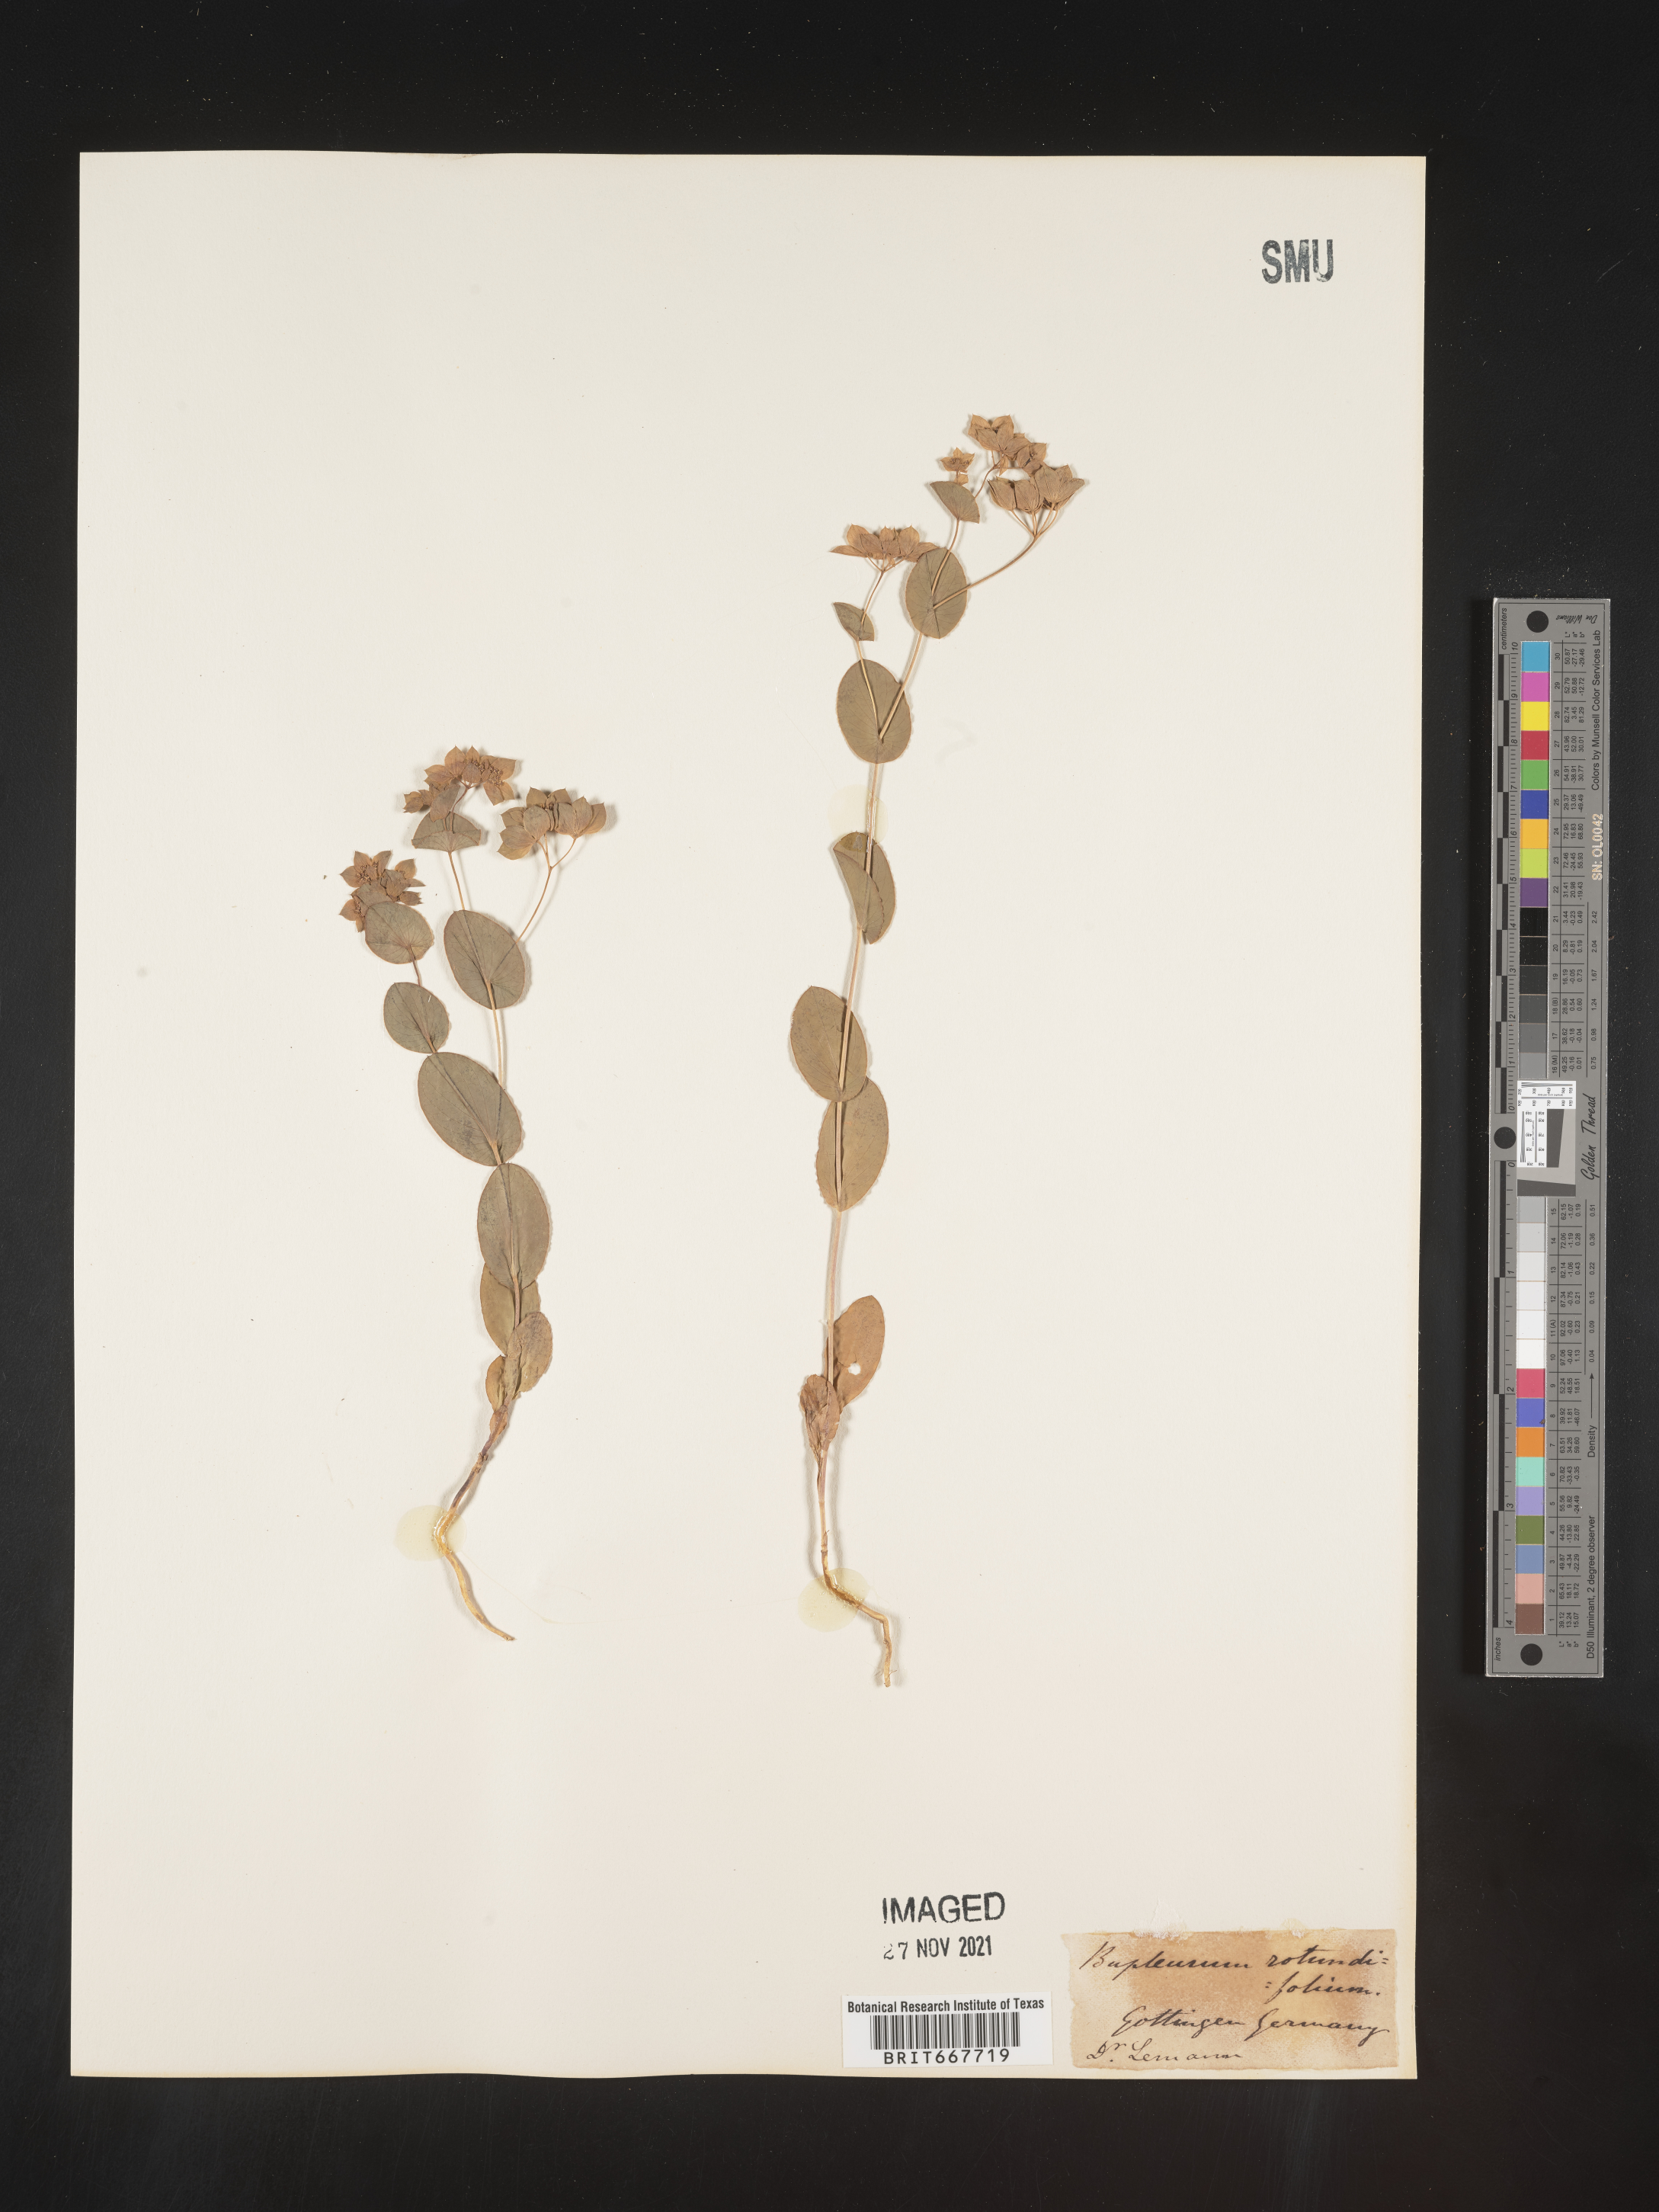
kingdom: Plantae
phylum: Tracheophyta
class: Magnoliopsida
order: Apiales
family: Apiaceae
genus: Bupleurum
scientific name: Bupleurum
